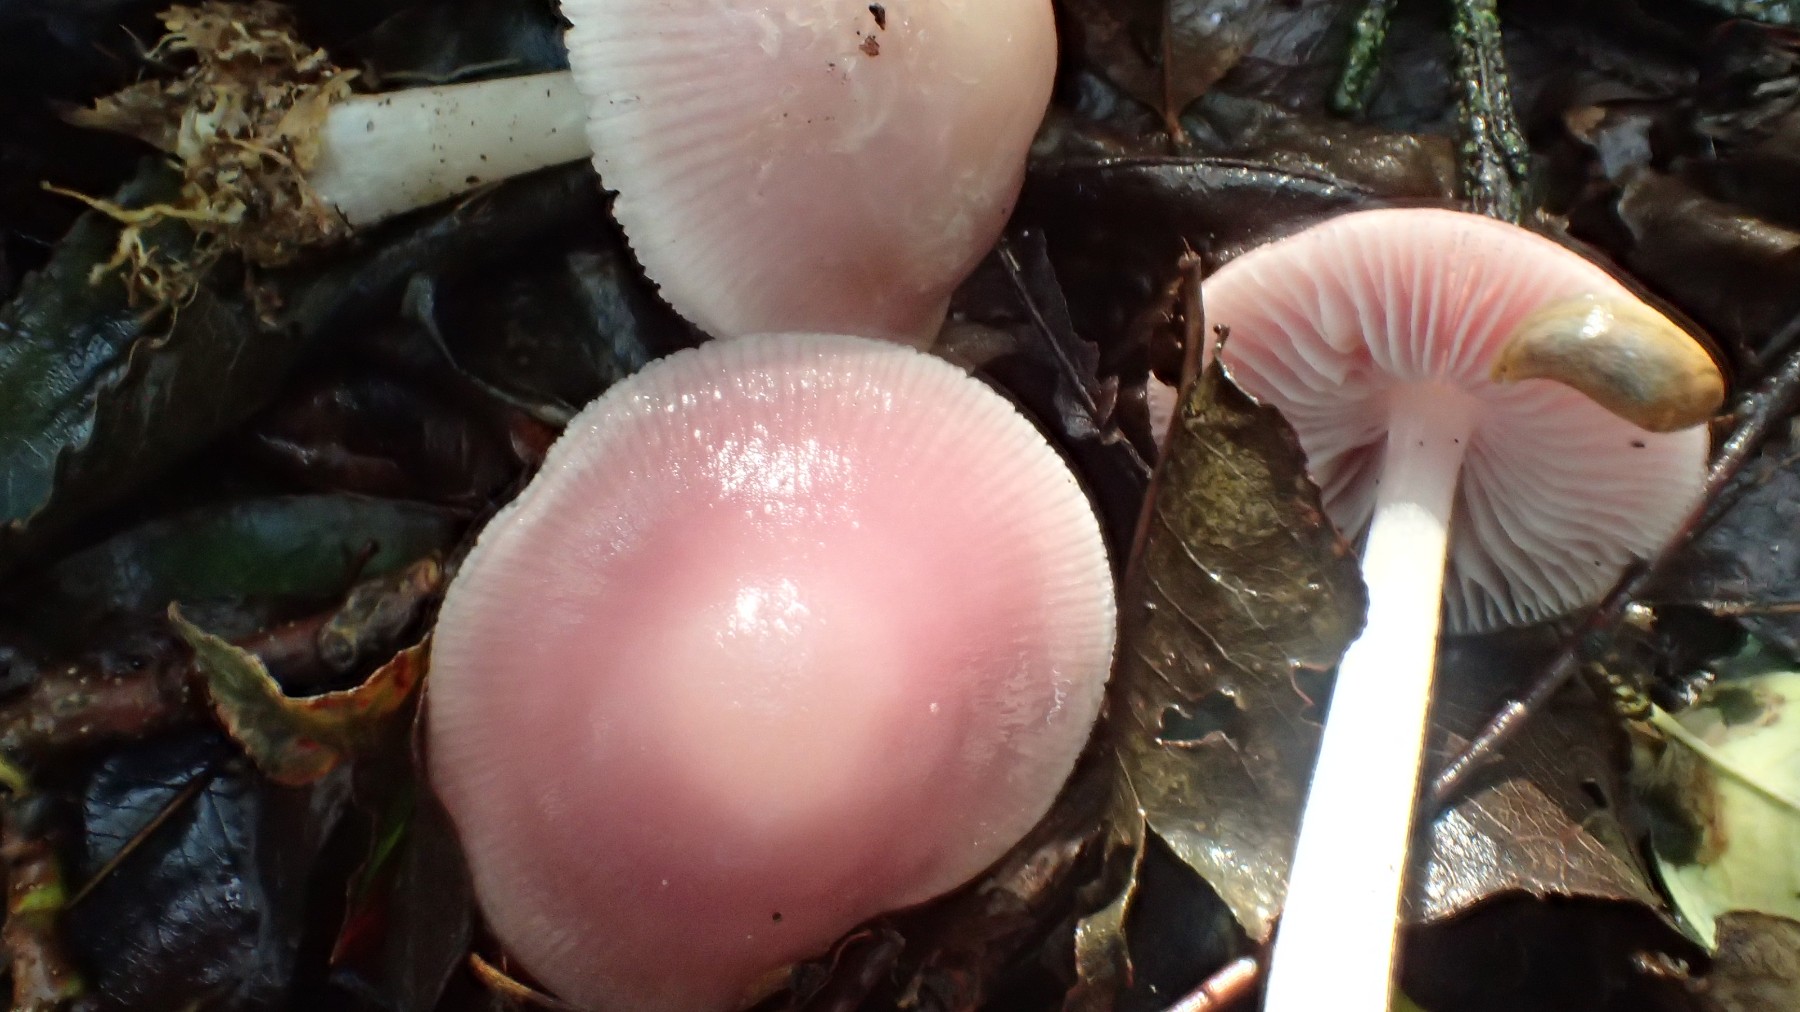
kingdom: Fungi
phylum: Basidiomycota
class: Agaricomycetes
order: Agaricales
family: Mycenaceae
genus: Mycena
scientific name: Mycena rosea
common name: rosa huesvamp
